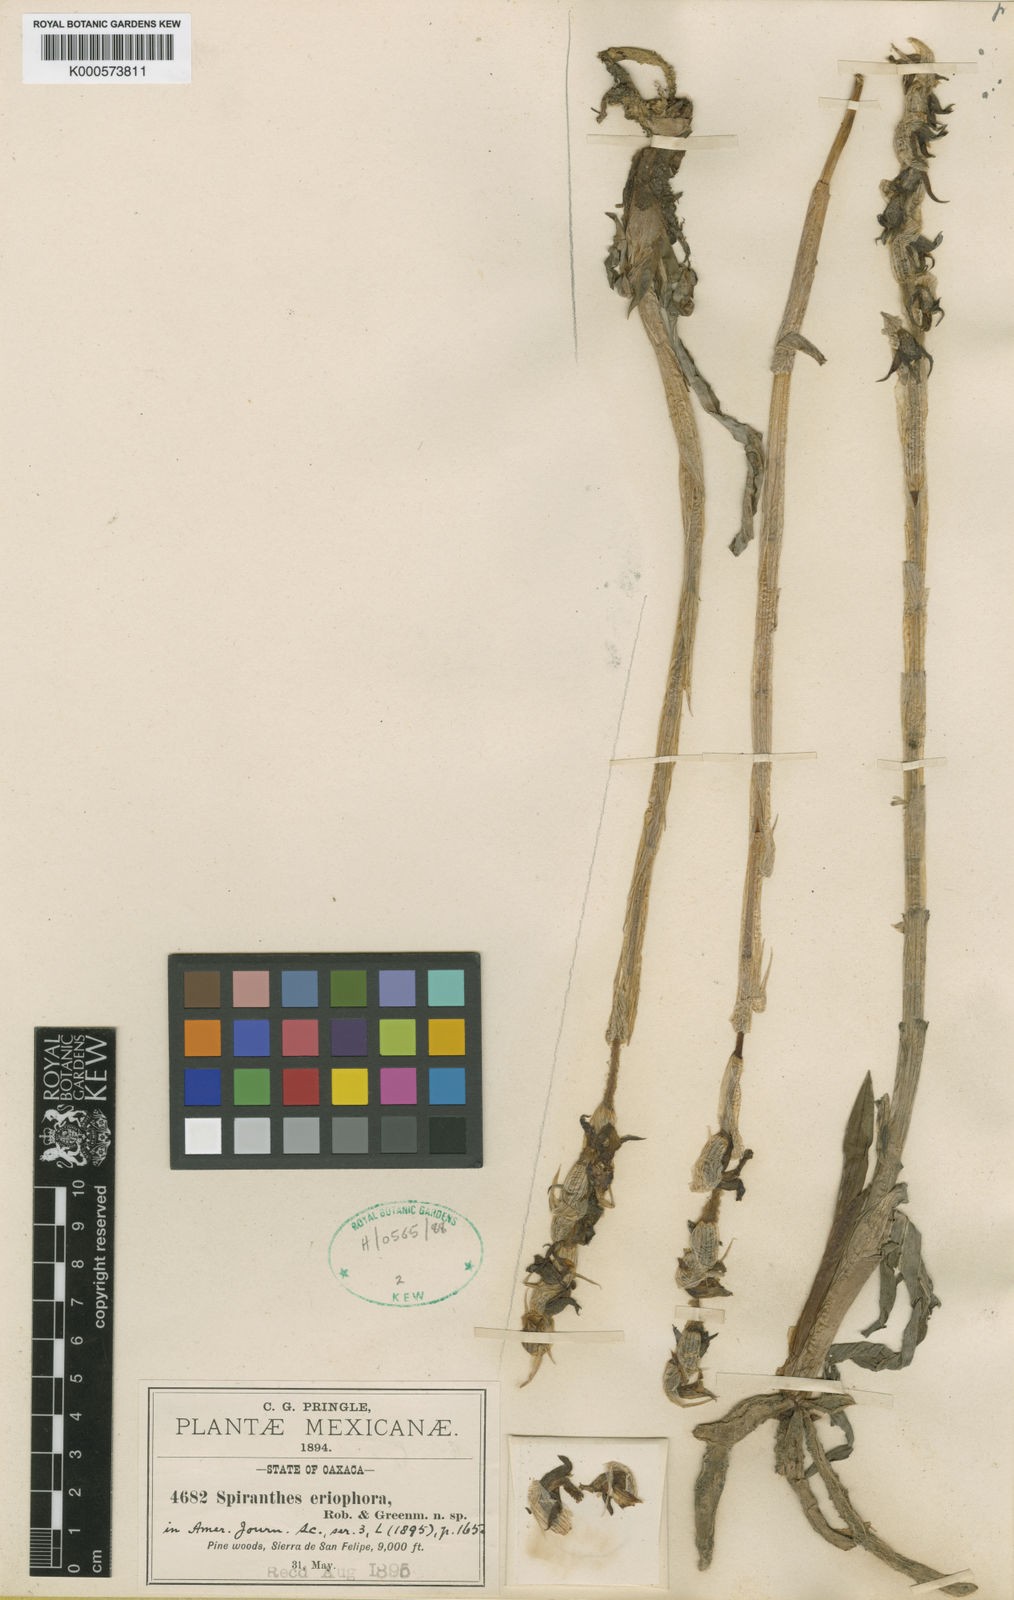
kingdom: Plantae
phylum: Tracheophyta
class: Liliopsida
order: Asparagales
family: Orchidaceae
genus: Deiregyne
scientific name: Deiregyne eriophora
